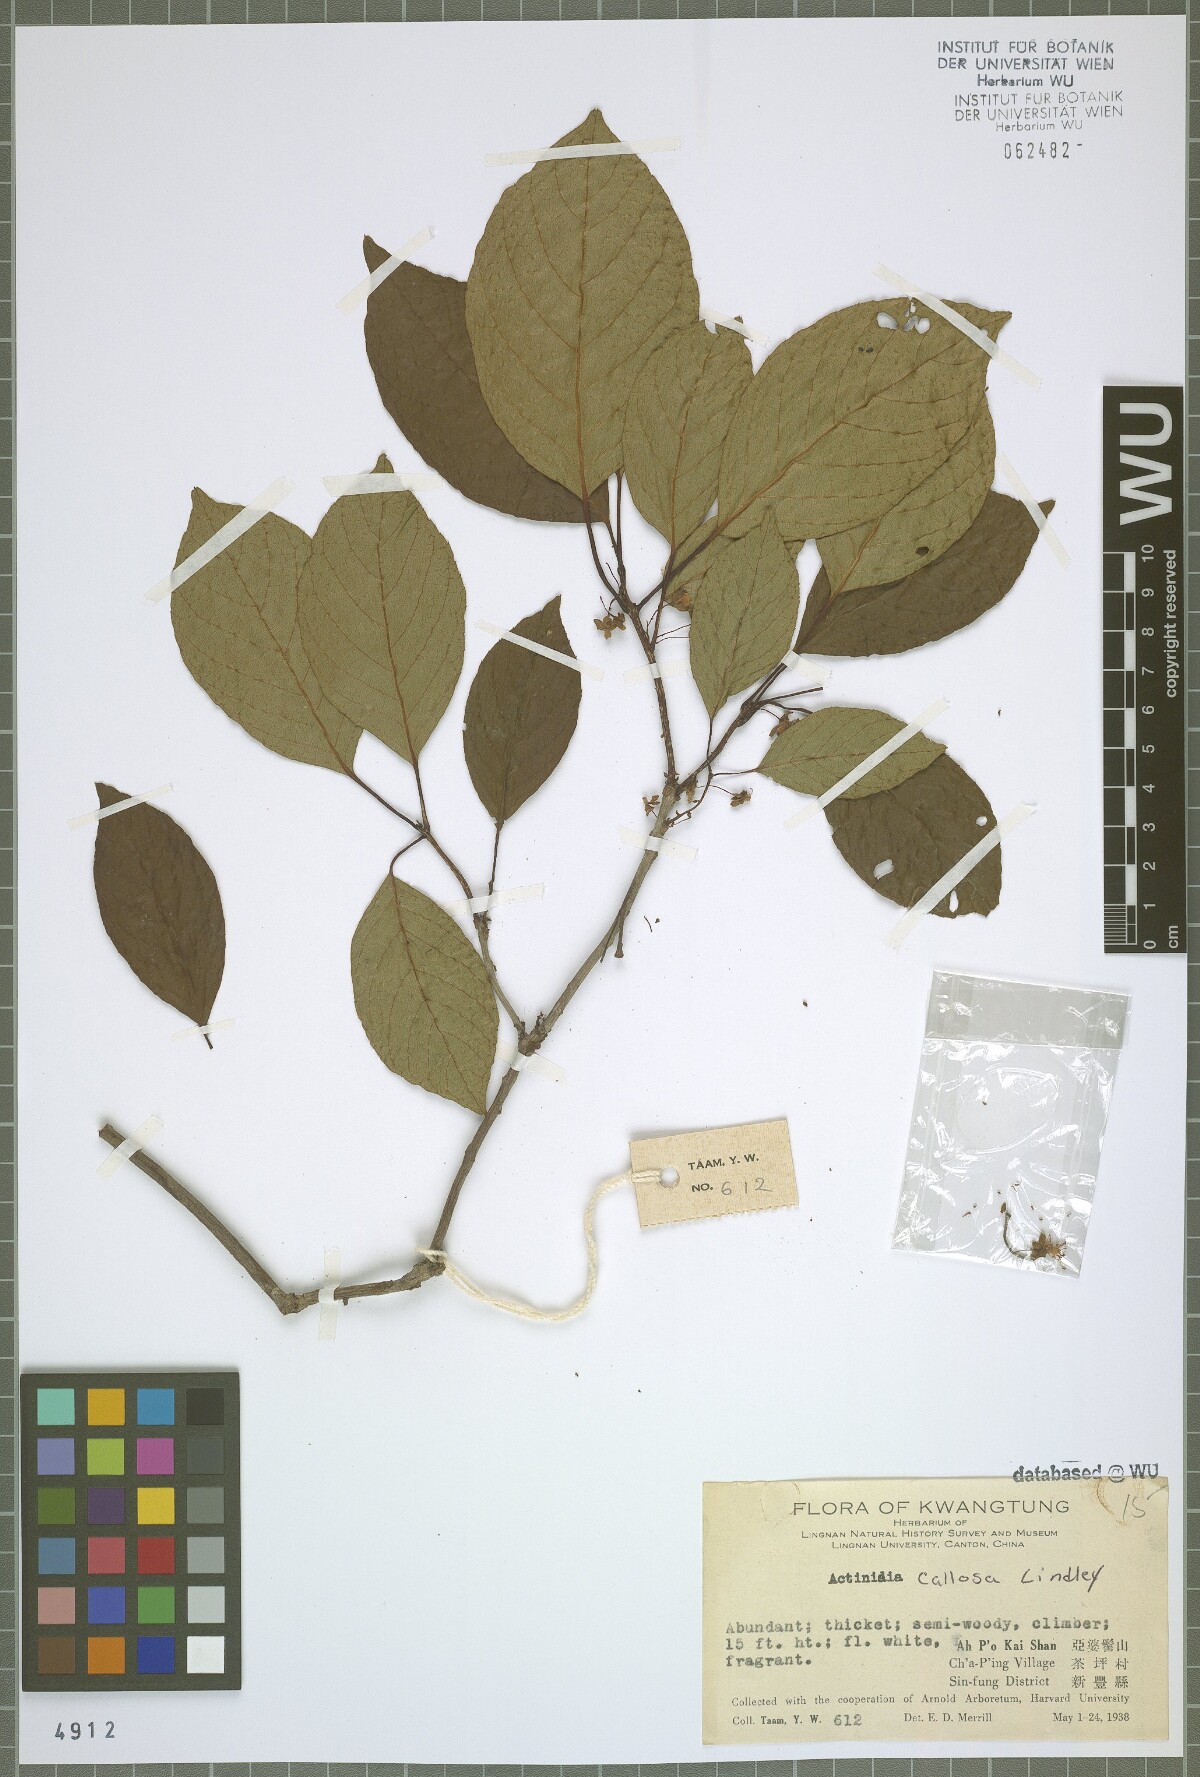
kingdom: Plantae
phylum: Tracheophyta
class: Magnoliopsida
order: Ericales
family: Actinidiaceae
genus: Actinidia
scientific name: Actinidia callosa
